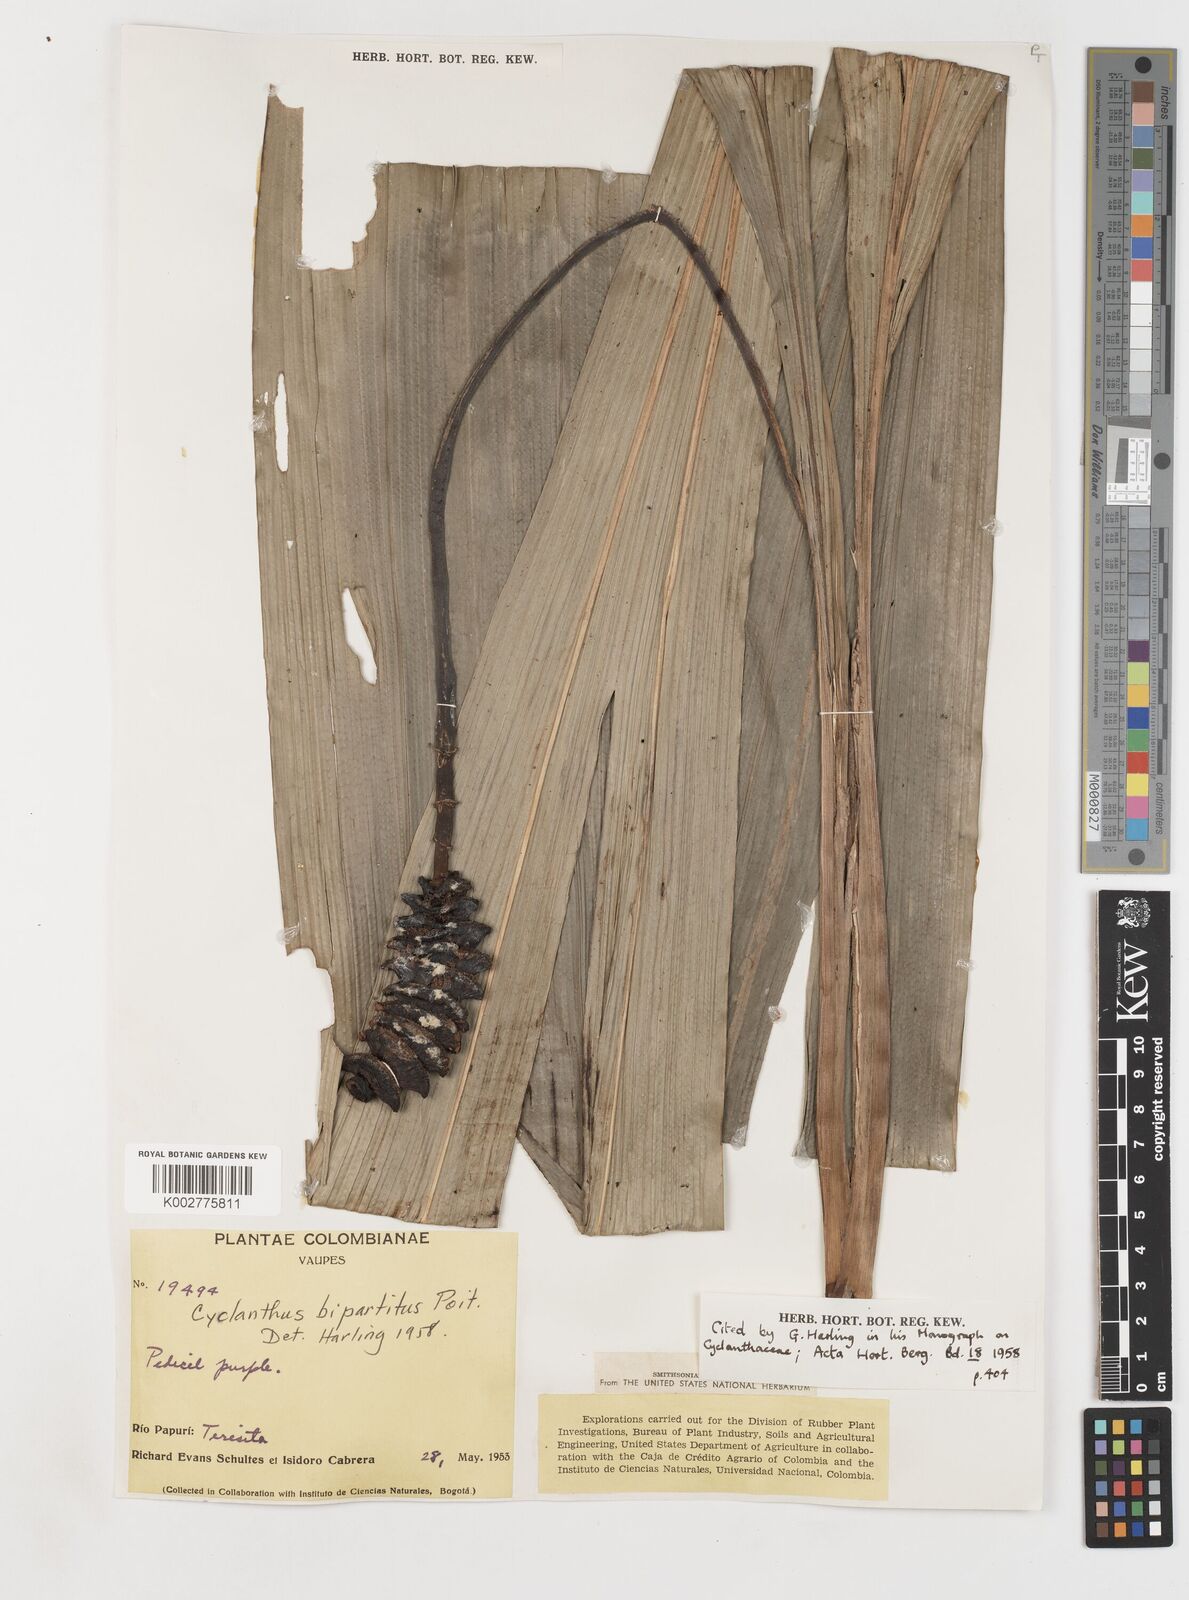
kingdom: Plantae
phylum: Tracheophyta
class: Liliopsida
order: Pandanales
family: Cyclanthaceae
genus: Cyclanthus
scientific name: Cyclanthus bipartitus
